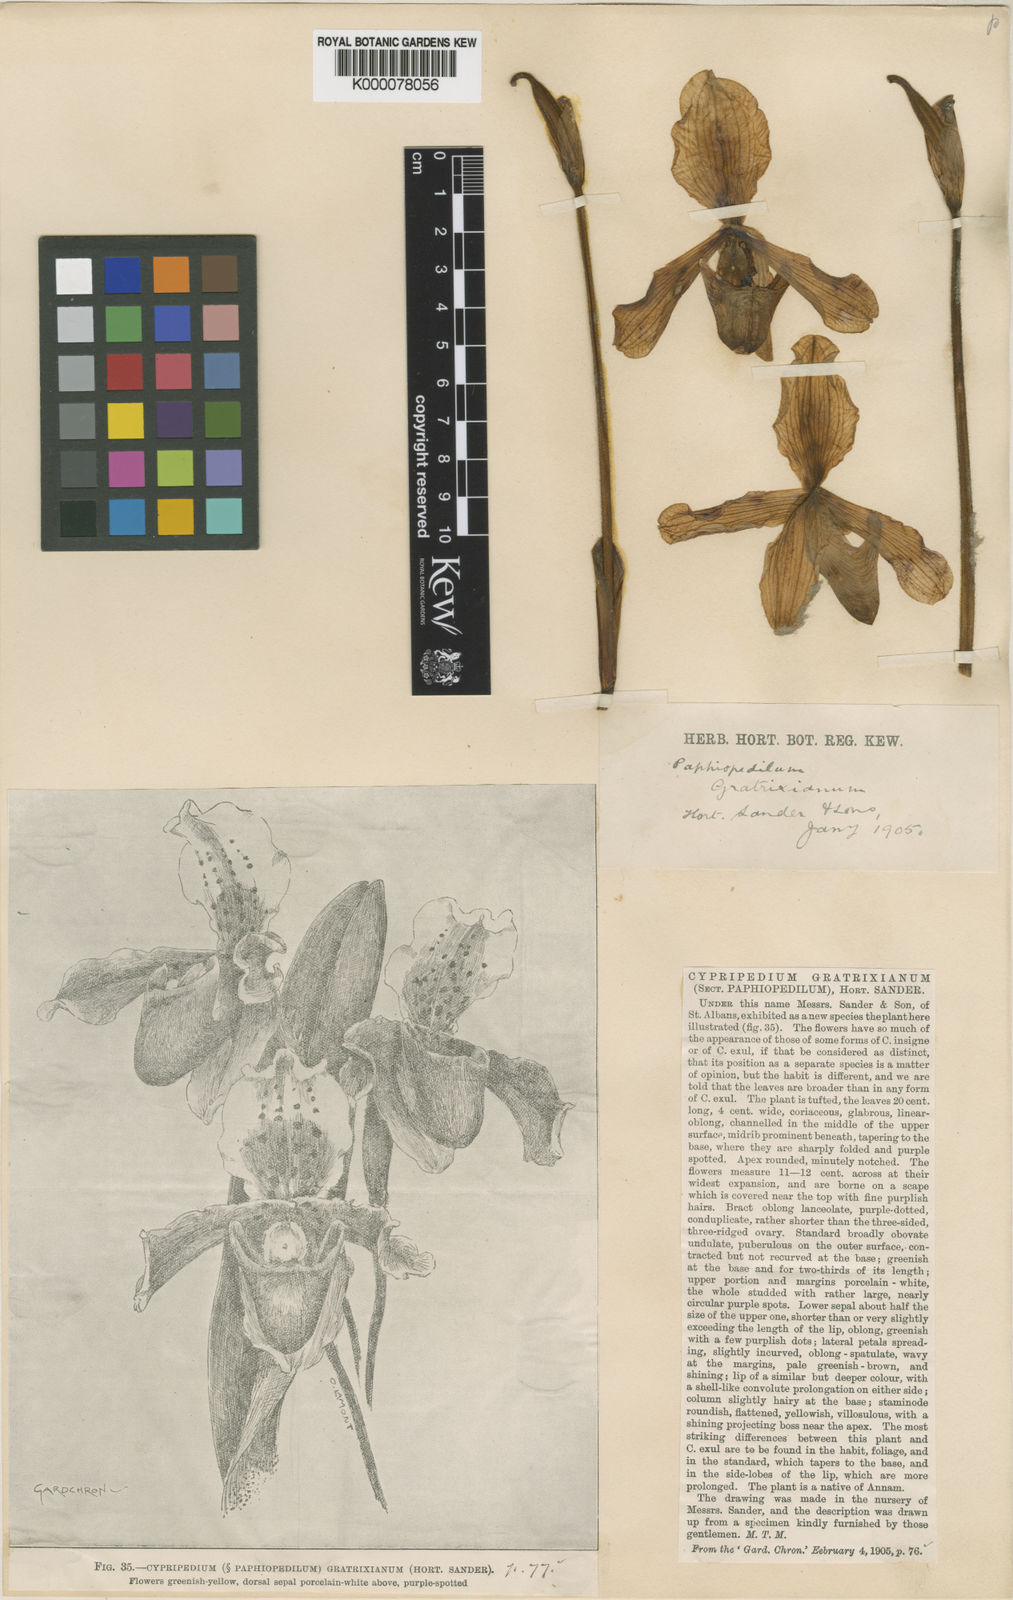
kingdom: Plantae
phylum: Tracheophyta
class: Liliopsida
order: Asparagales
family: Orchidaceae
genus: Paphiopedilum
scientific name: Paphiopedilum gratrixianum
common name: Gratix's paphiopedilum
